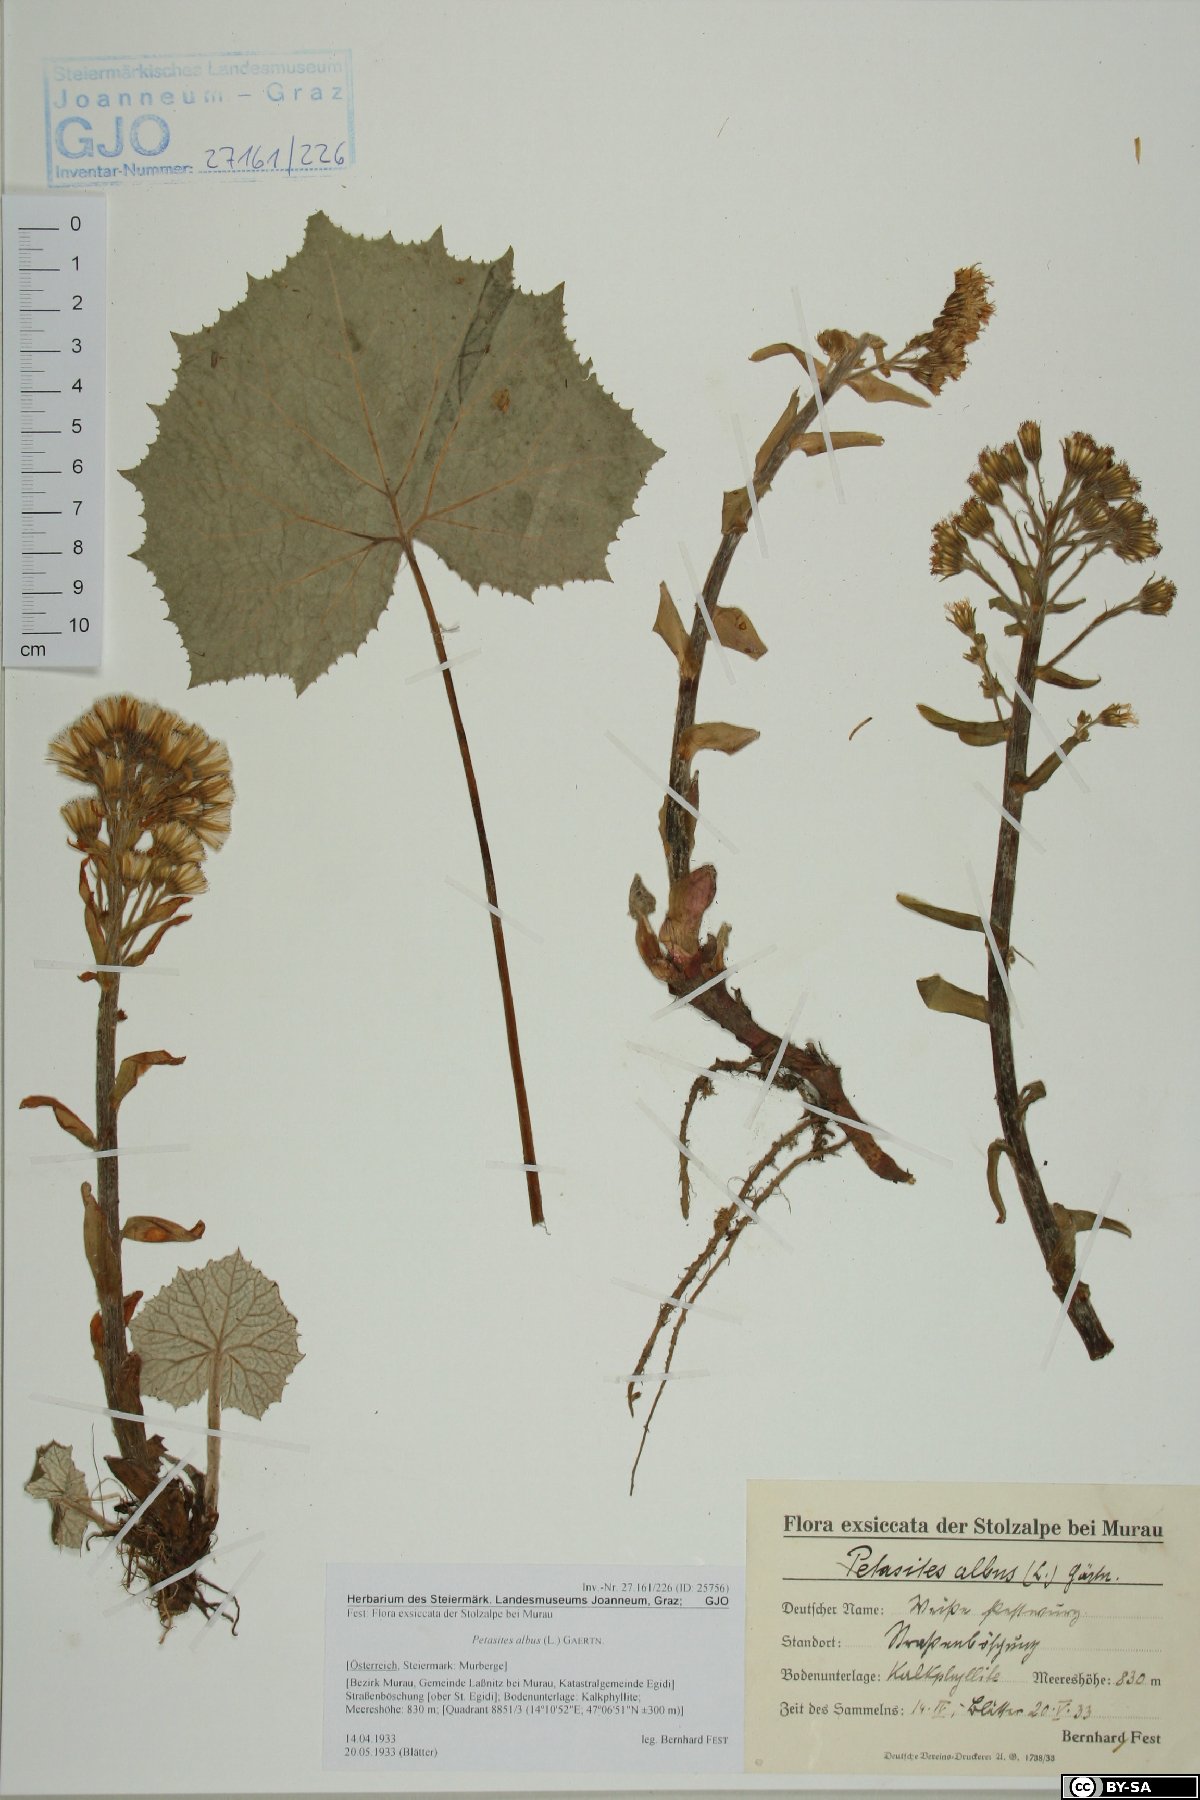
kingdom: Plantae
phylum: Tracheophyta
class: Magnoliopsida
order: Asterales
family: Asteraceae
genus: Petasites
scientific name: Petasites albus
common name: White butterbur
